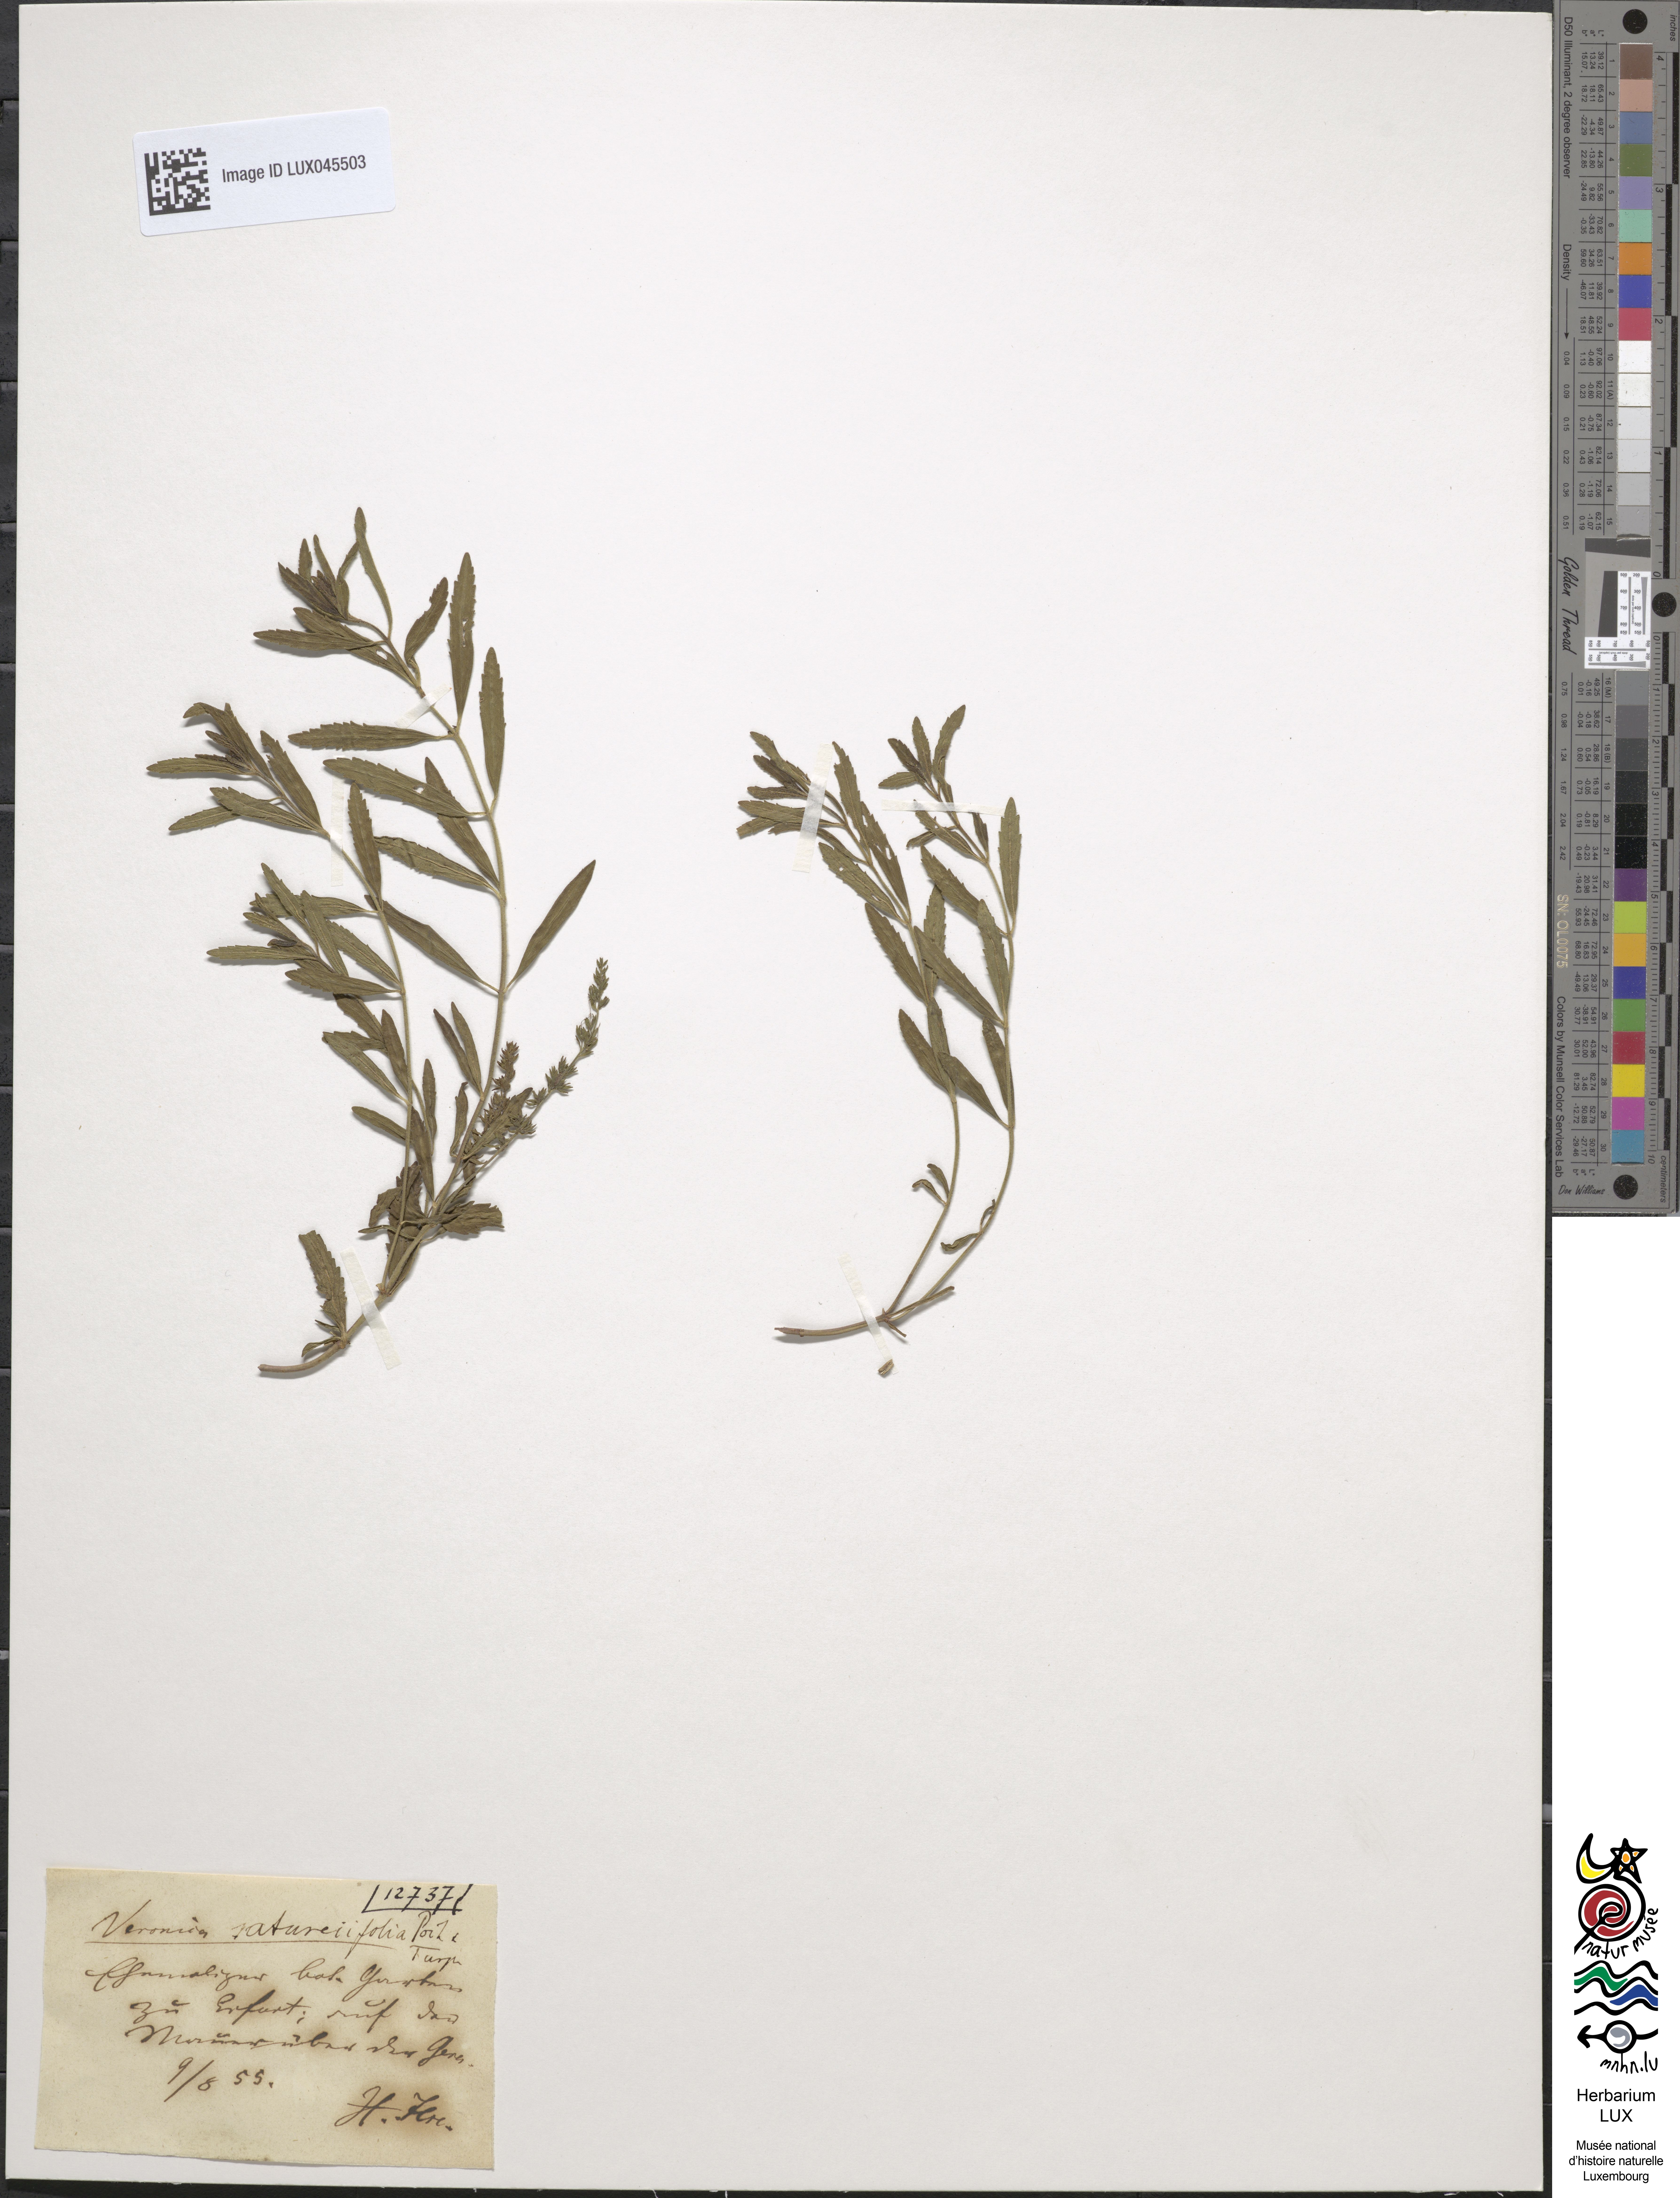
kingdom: Plantae
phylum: Tracheophyta
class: Magnoliopsida
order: Lamiales
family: Plantaginaceae
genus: Veronica
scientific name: Veronica satureiifolia
